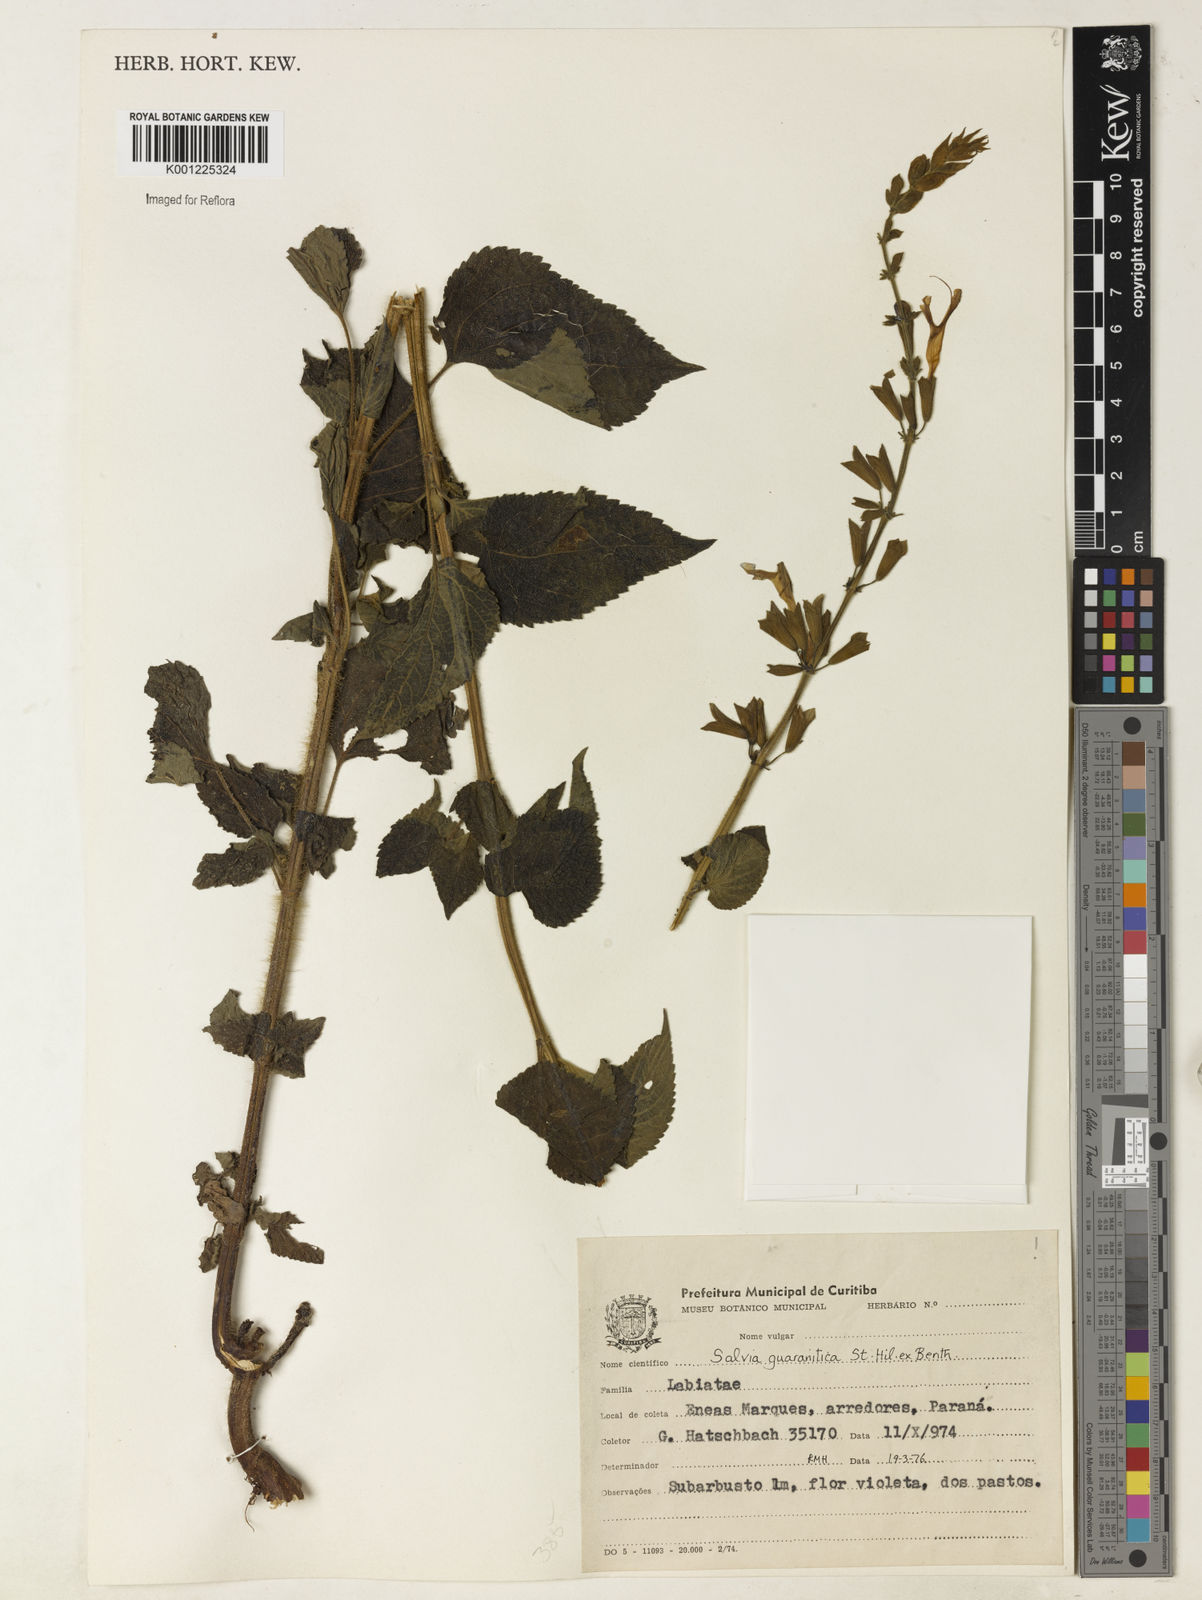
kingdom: Plantae
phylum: Tracheophyta
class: Magnoliopsida
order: Lamiales
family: Lamiaceae
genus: Salvia
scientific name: Salvia guaranitica
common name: Anise-scented sage
